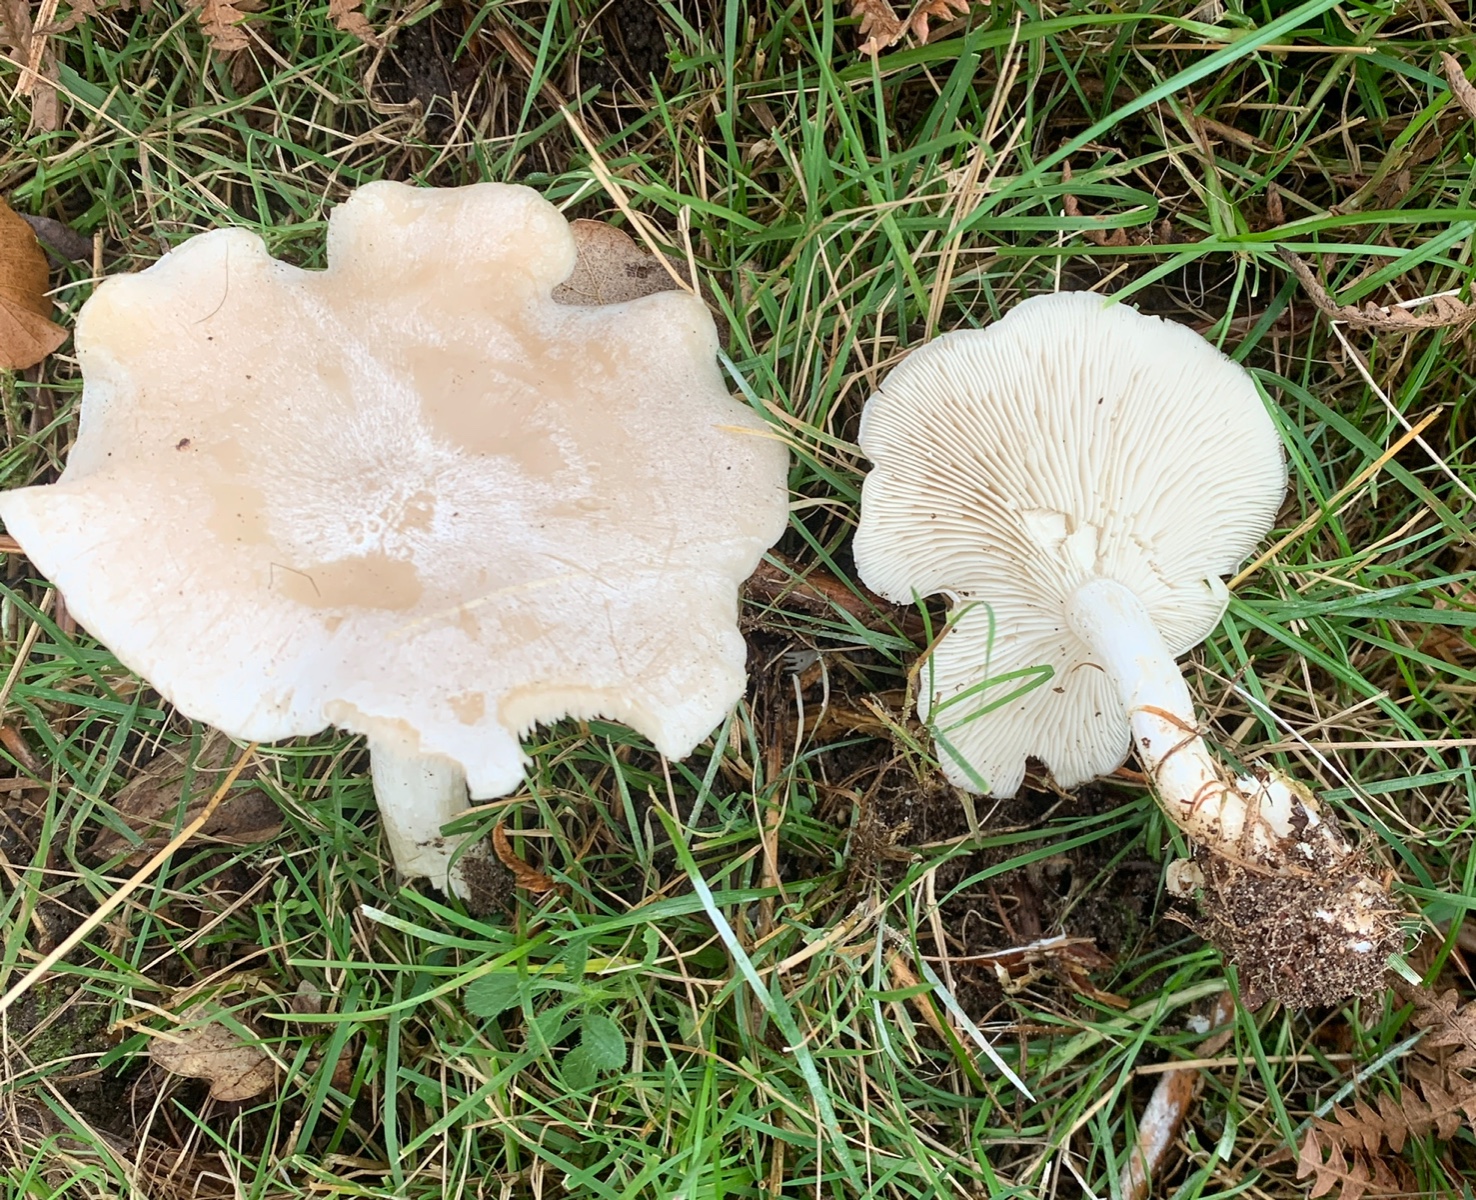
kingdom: Fungi
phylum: Basidiomycota
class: Agaricomycetes
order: Agaricales
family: Tricholomataceae
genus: Leucocybe
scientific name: Leucocybe connata
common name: knippe-tragthat
